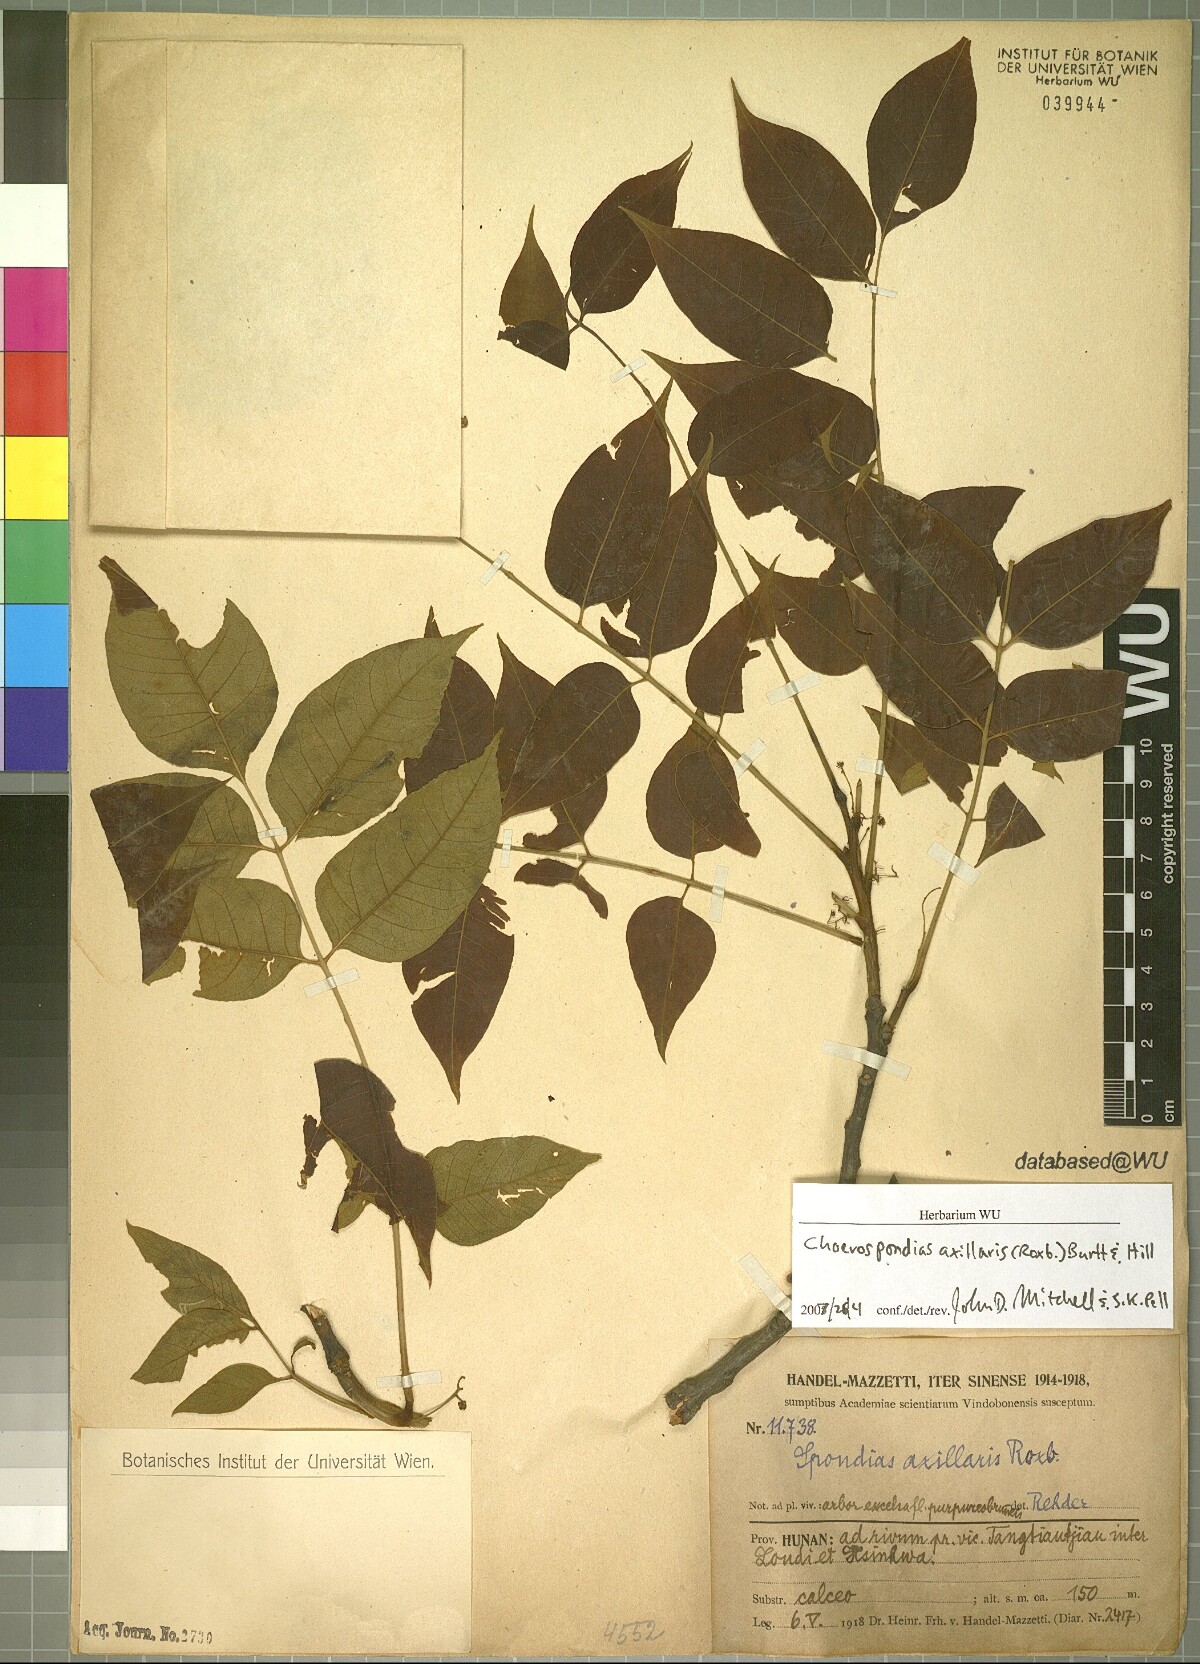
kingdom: Plantae
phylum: Tracheophyta
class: Magnoliopsida
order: Sapindales
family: Anacardiaceae
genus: Choerospondias
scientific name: Choerospondias axillaris
